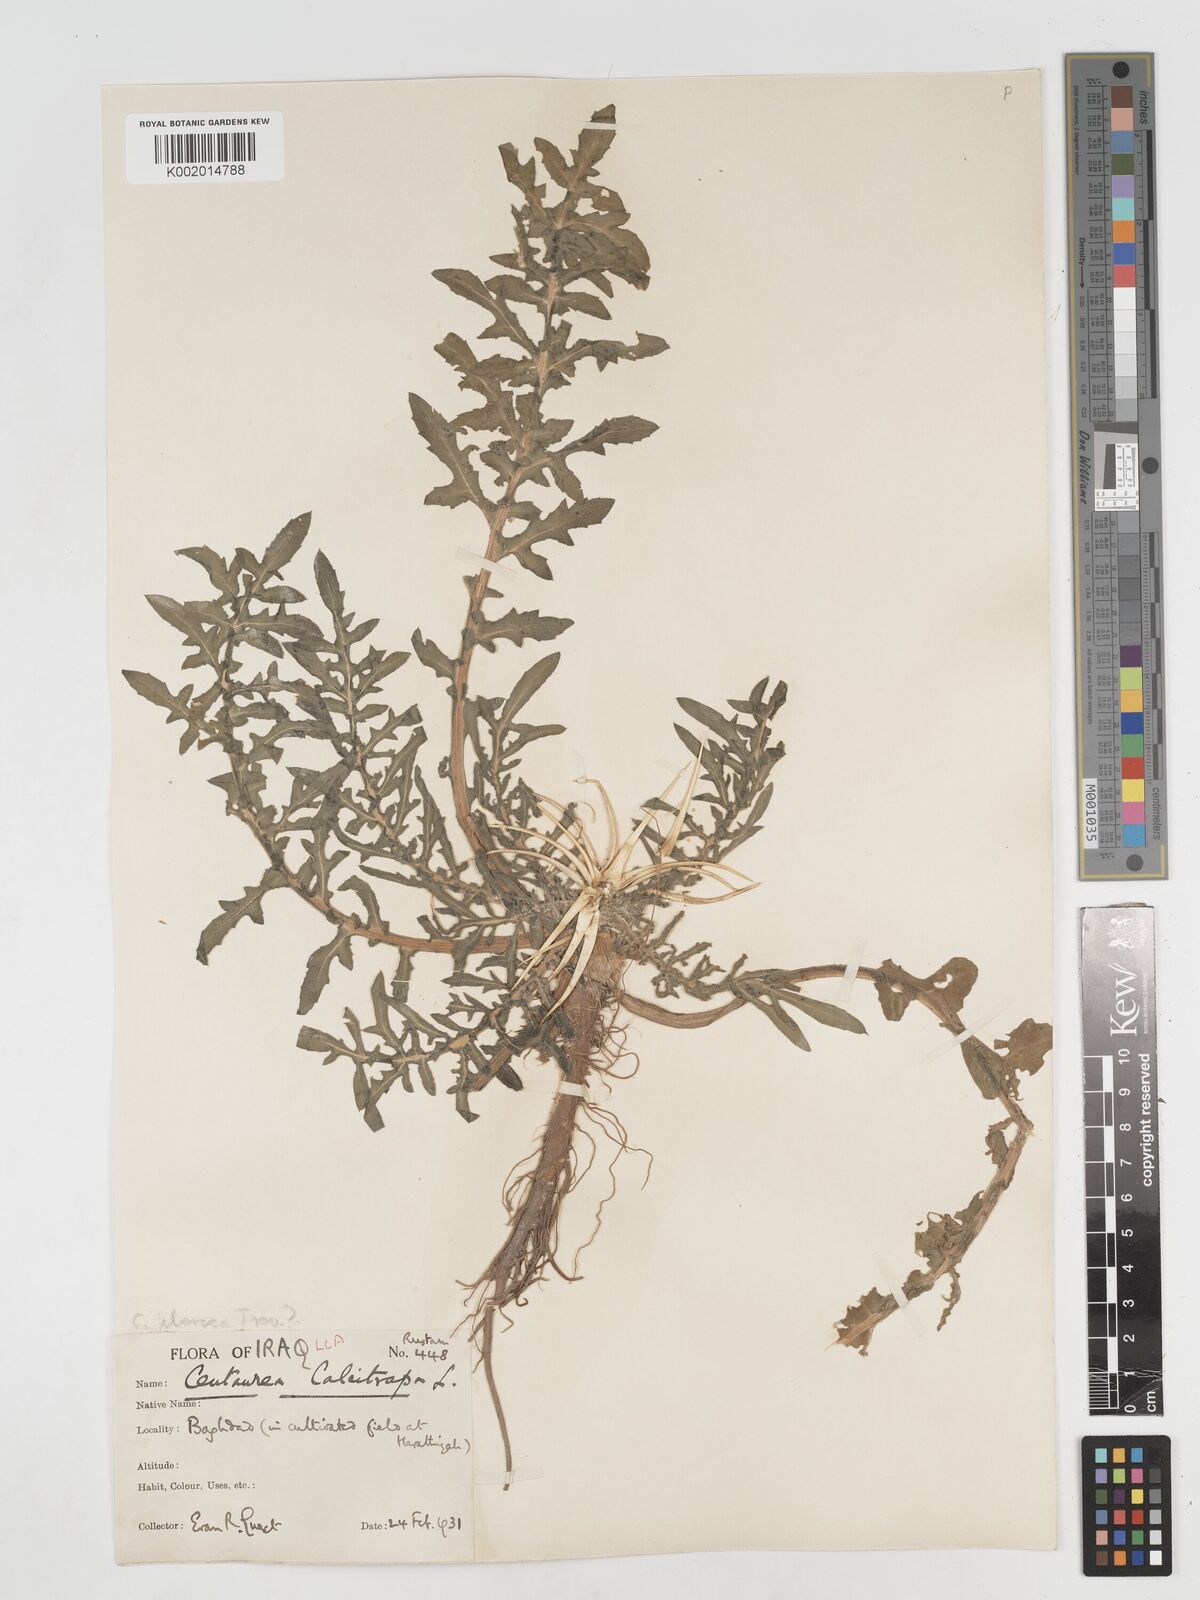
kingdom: Plantae
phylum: Tracheophyta
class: Magnoliopsida
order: Asterales
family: Asteraceae
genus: Centaurea
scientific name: Centaurea iberica
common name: Iberian knapweed
